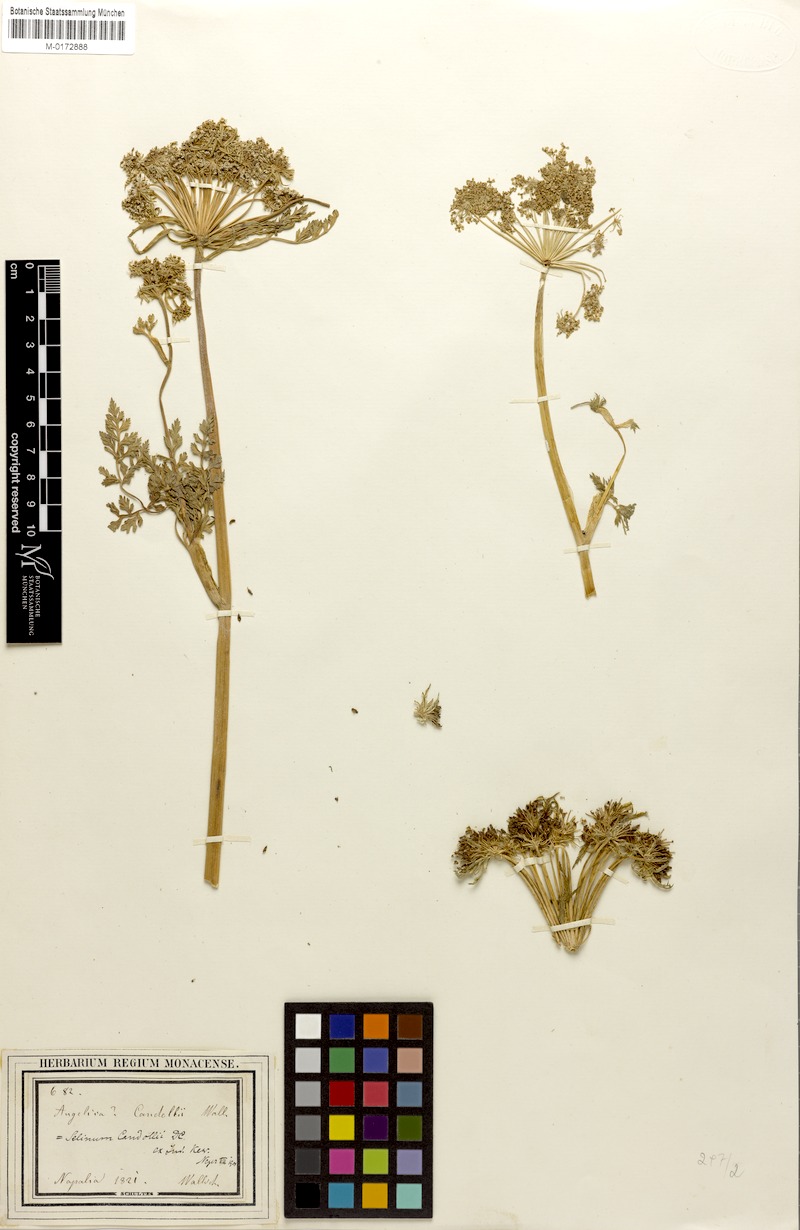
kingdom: Plantae
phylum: Tracheophyta
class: Magnoliopsida
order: Apiales
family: Apiaceae
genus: Oreocome
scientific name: Oreocome candollei
